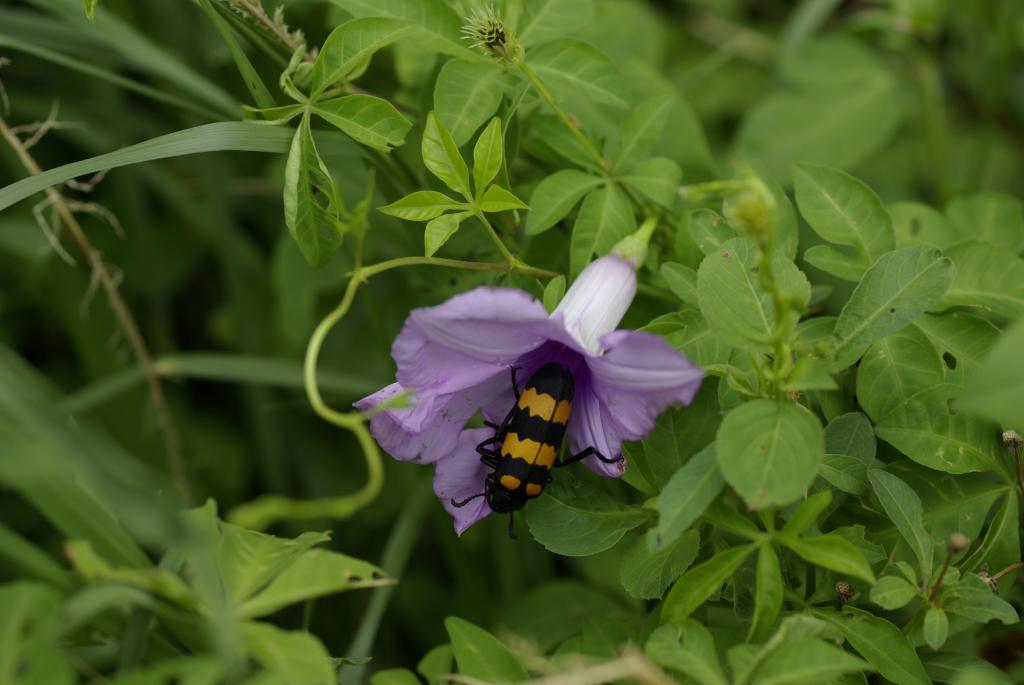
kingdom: Plantae
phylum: Tracheophyta
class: Magnoliopsida
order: Solanales
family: Convolvulaceae
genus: Ipomoea
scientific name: Ipomoea cairica
